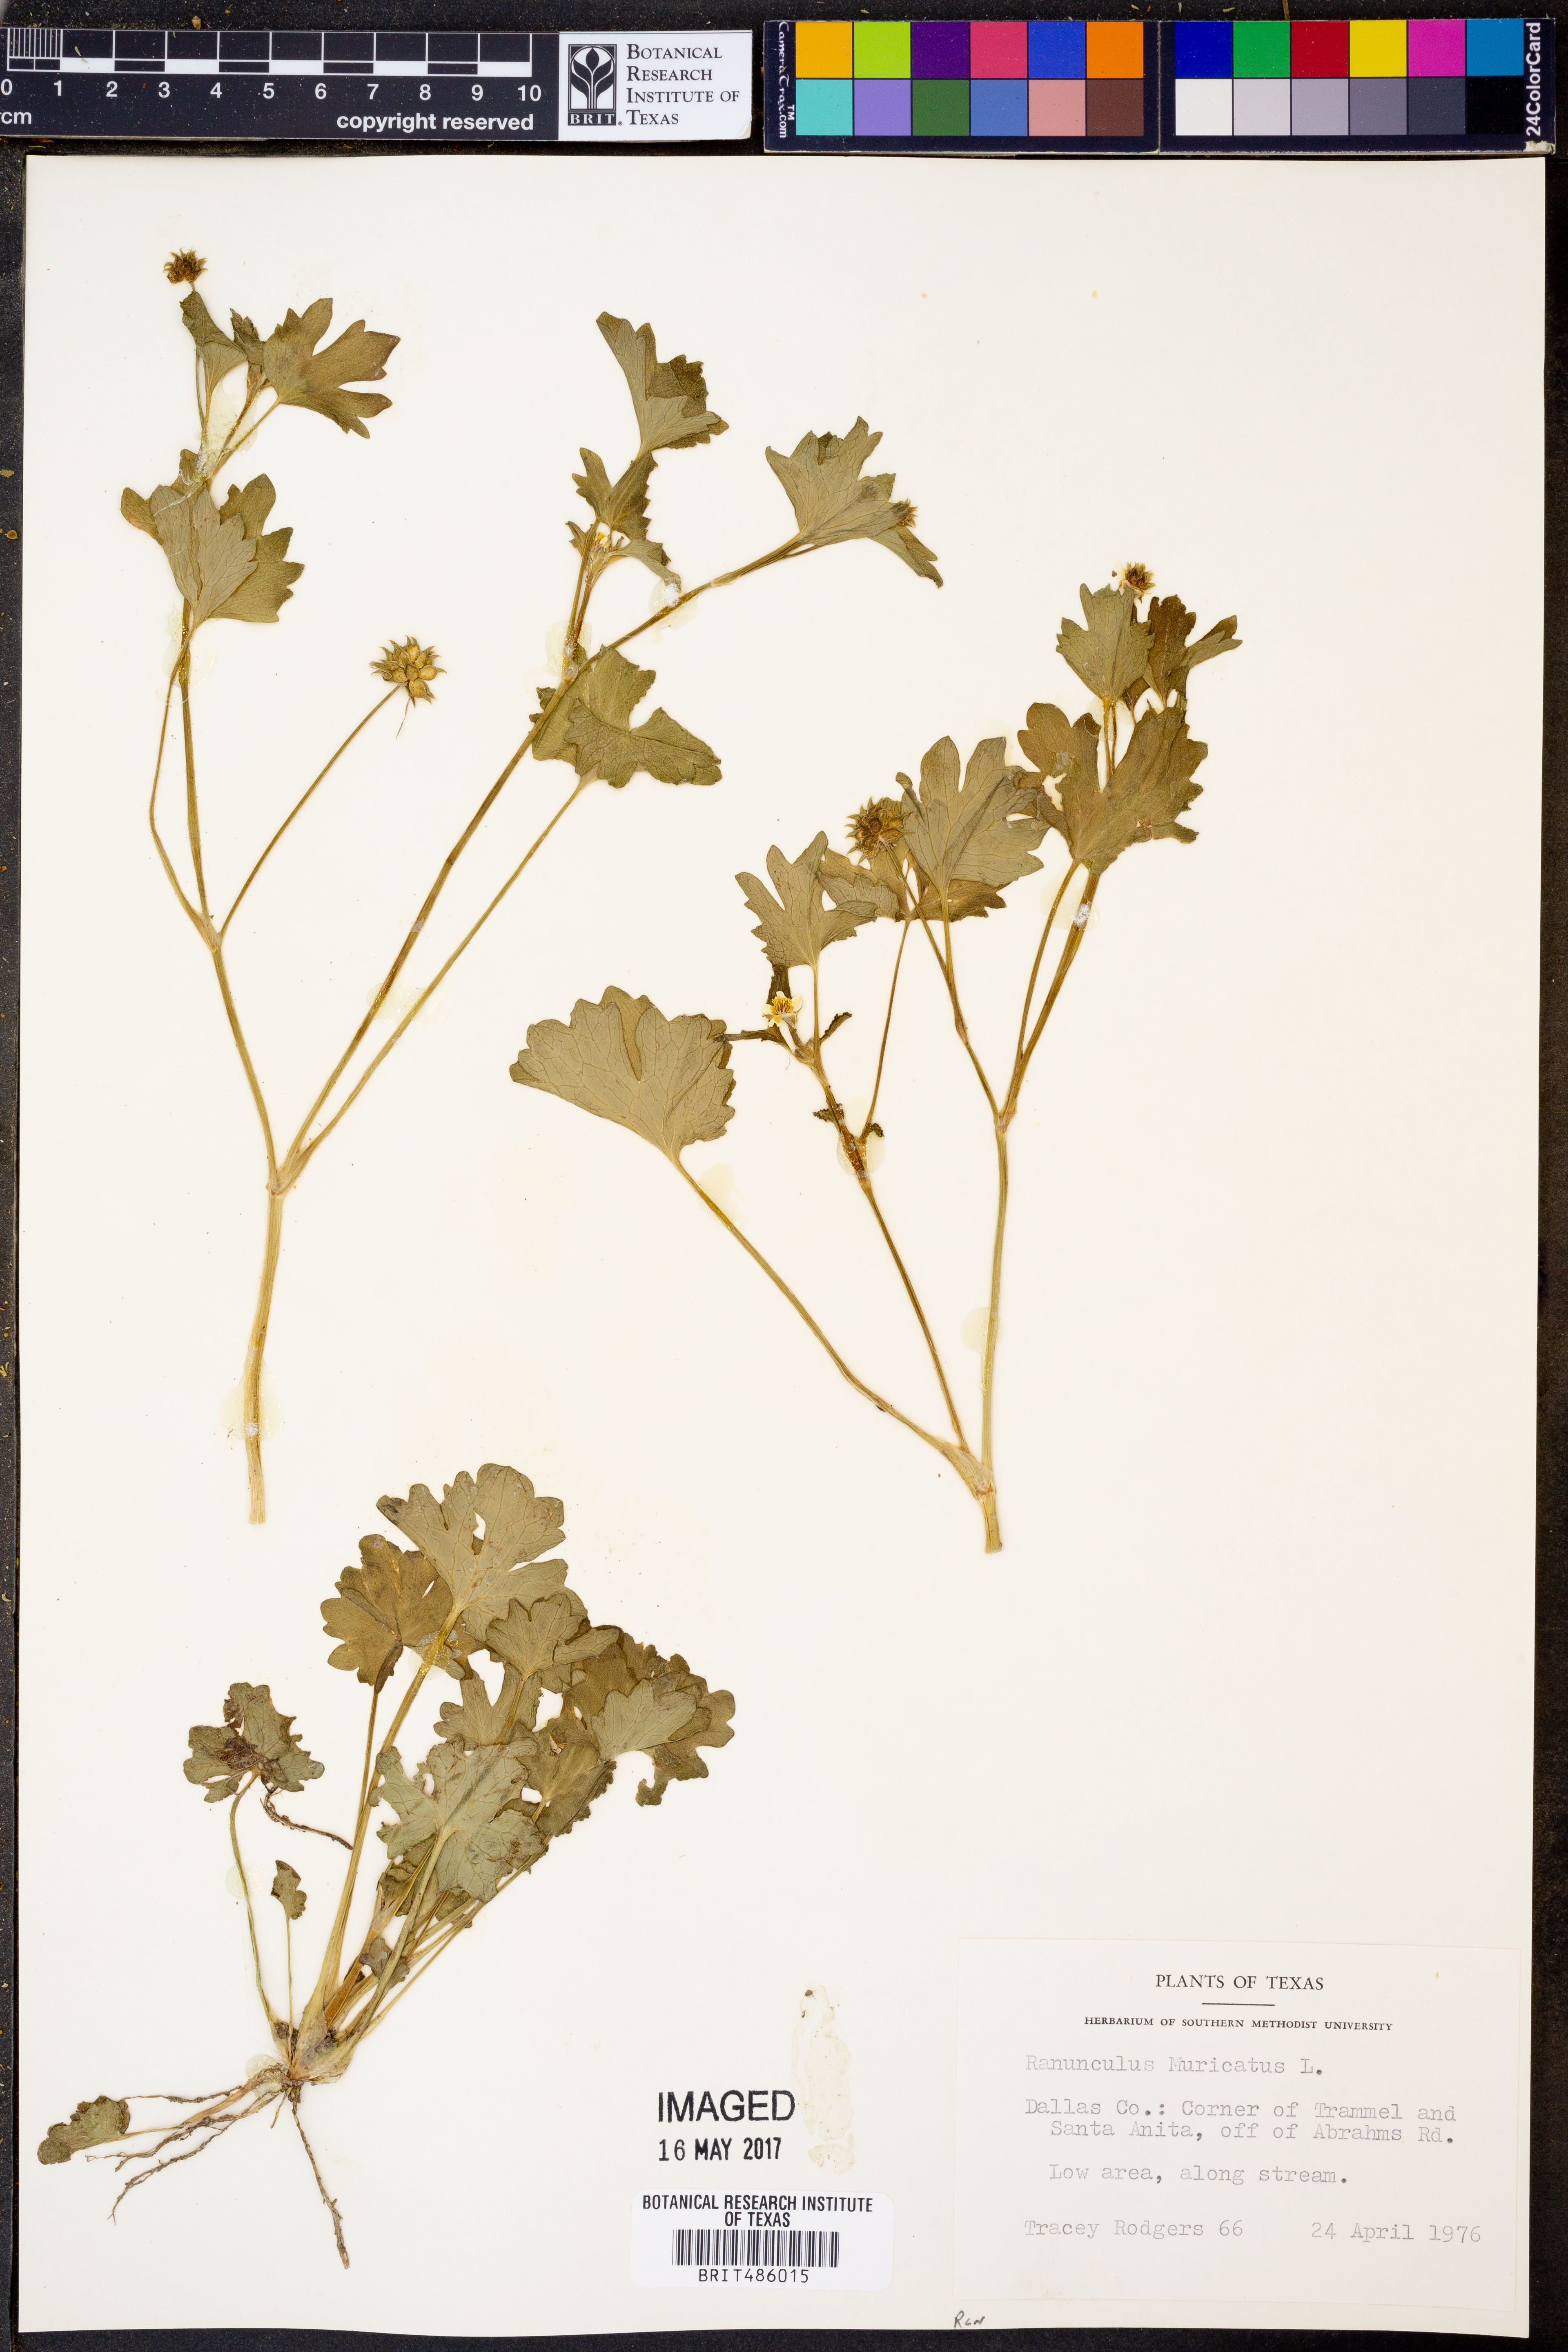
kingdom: Plantae
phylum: Tracheophyta
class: Magnoliopsida
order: Ranunculales
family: Ranunculaceae
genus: Ranunculus
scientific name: Ranunculus muricatus
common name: Rough-fruited buttercup
